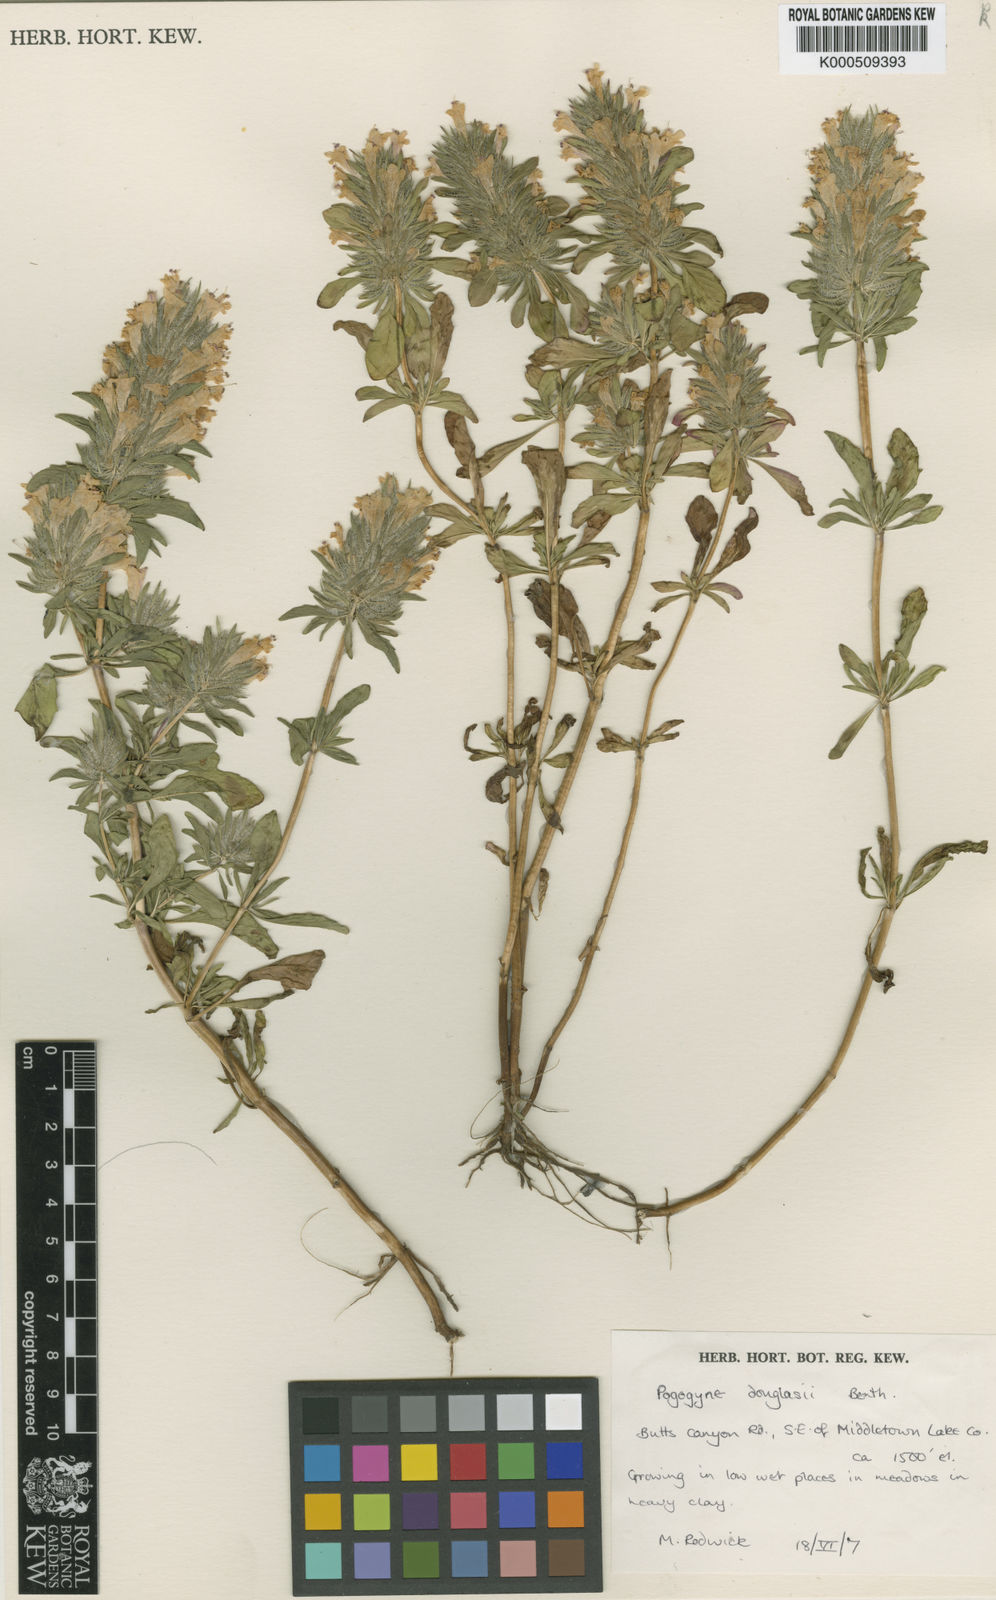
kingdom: Plantae
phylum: Tracheophyta
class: Magnoliopsida
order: Lamiales
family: Lamiaceae
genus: Pogogyne
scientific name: Pogogyne douglasii
